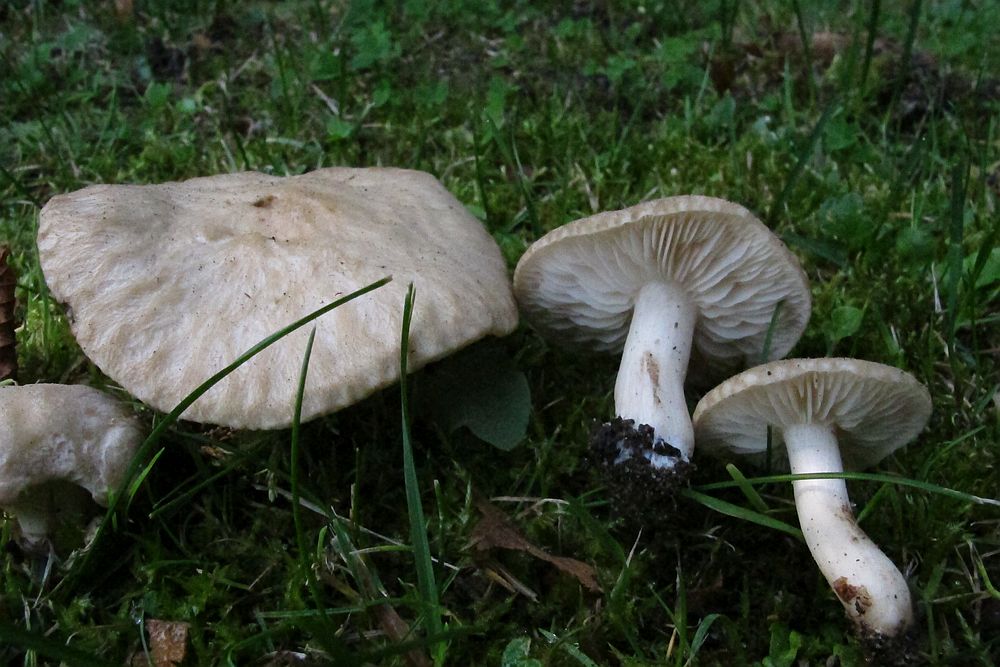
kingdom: Fungi
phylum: Basidiomycota
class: Agaricomycetes
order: Agaricales
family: Lyophyllaceae
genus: Lyophyllum
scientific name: Lyophyllum paelochroum
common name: blånende gråblad
